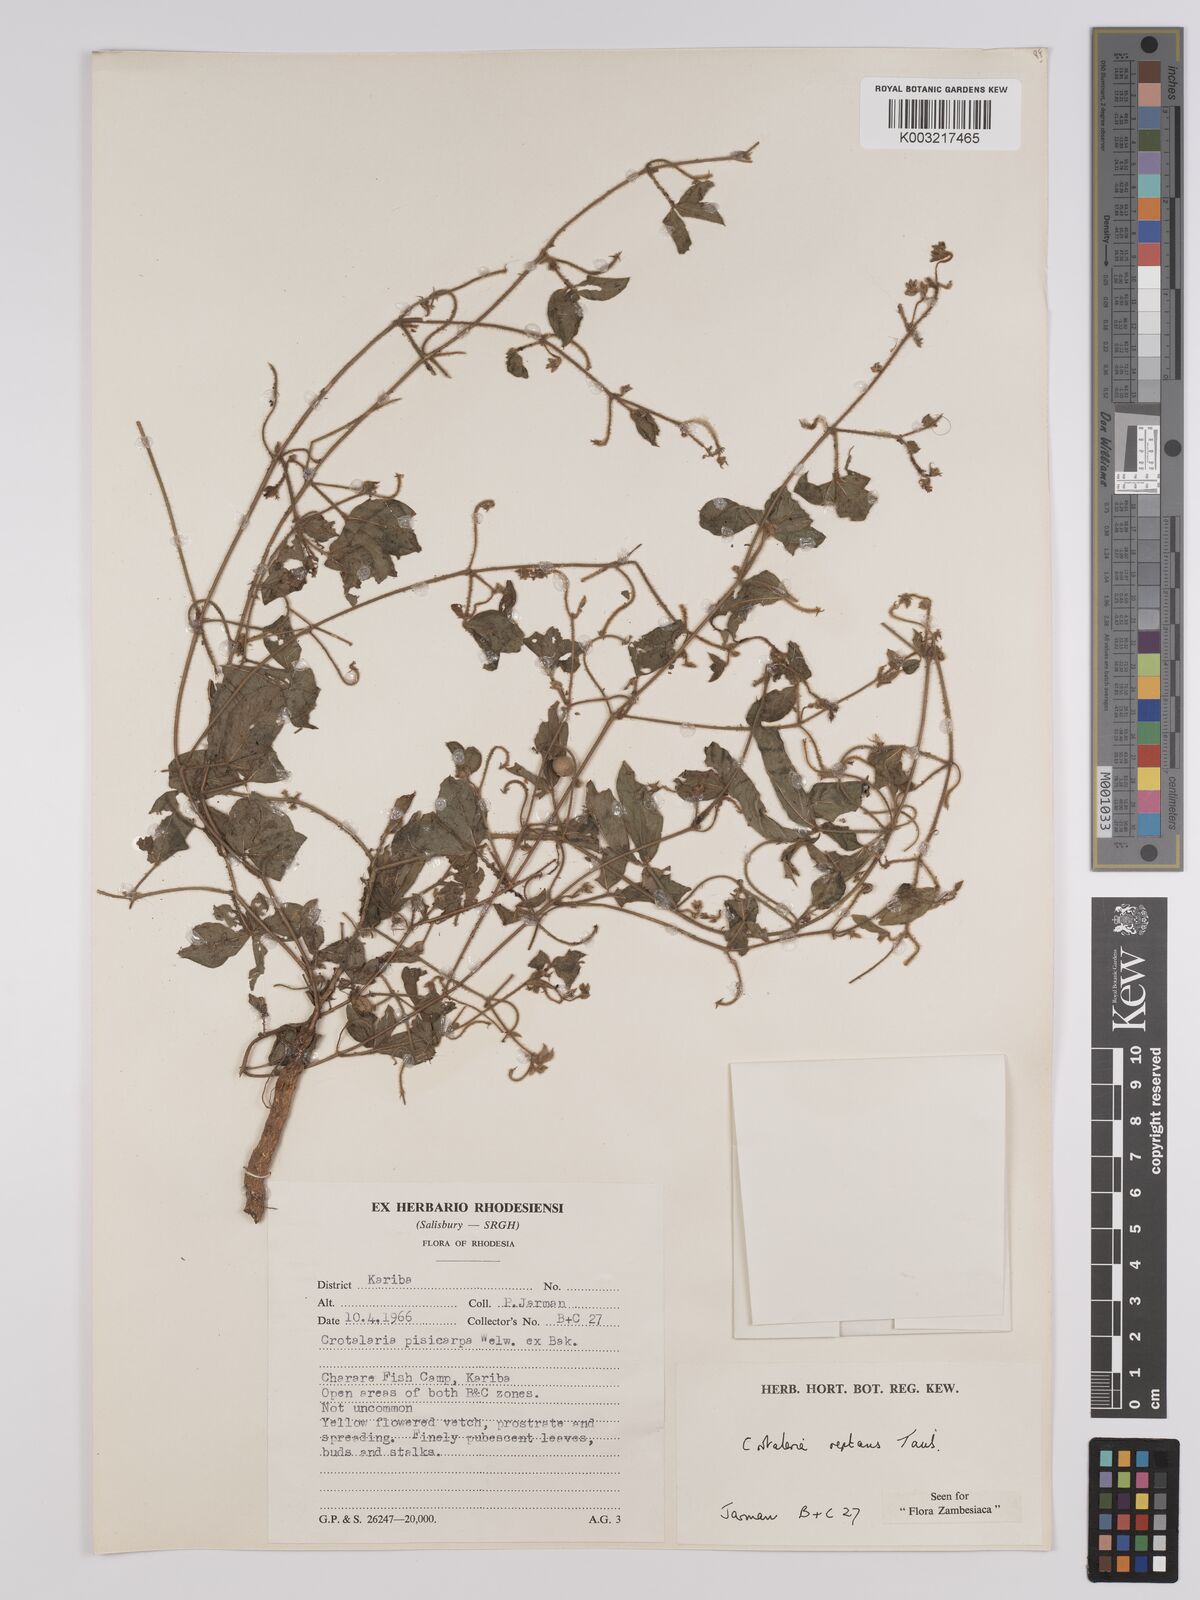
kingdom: Plantae
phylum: Tracheophyta
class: Magnoliopsida
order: Fabales
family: Fabaceae
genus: Crotalaria
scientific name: Crotalaria reptans
